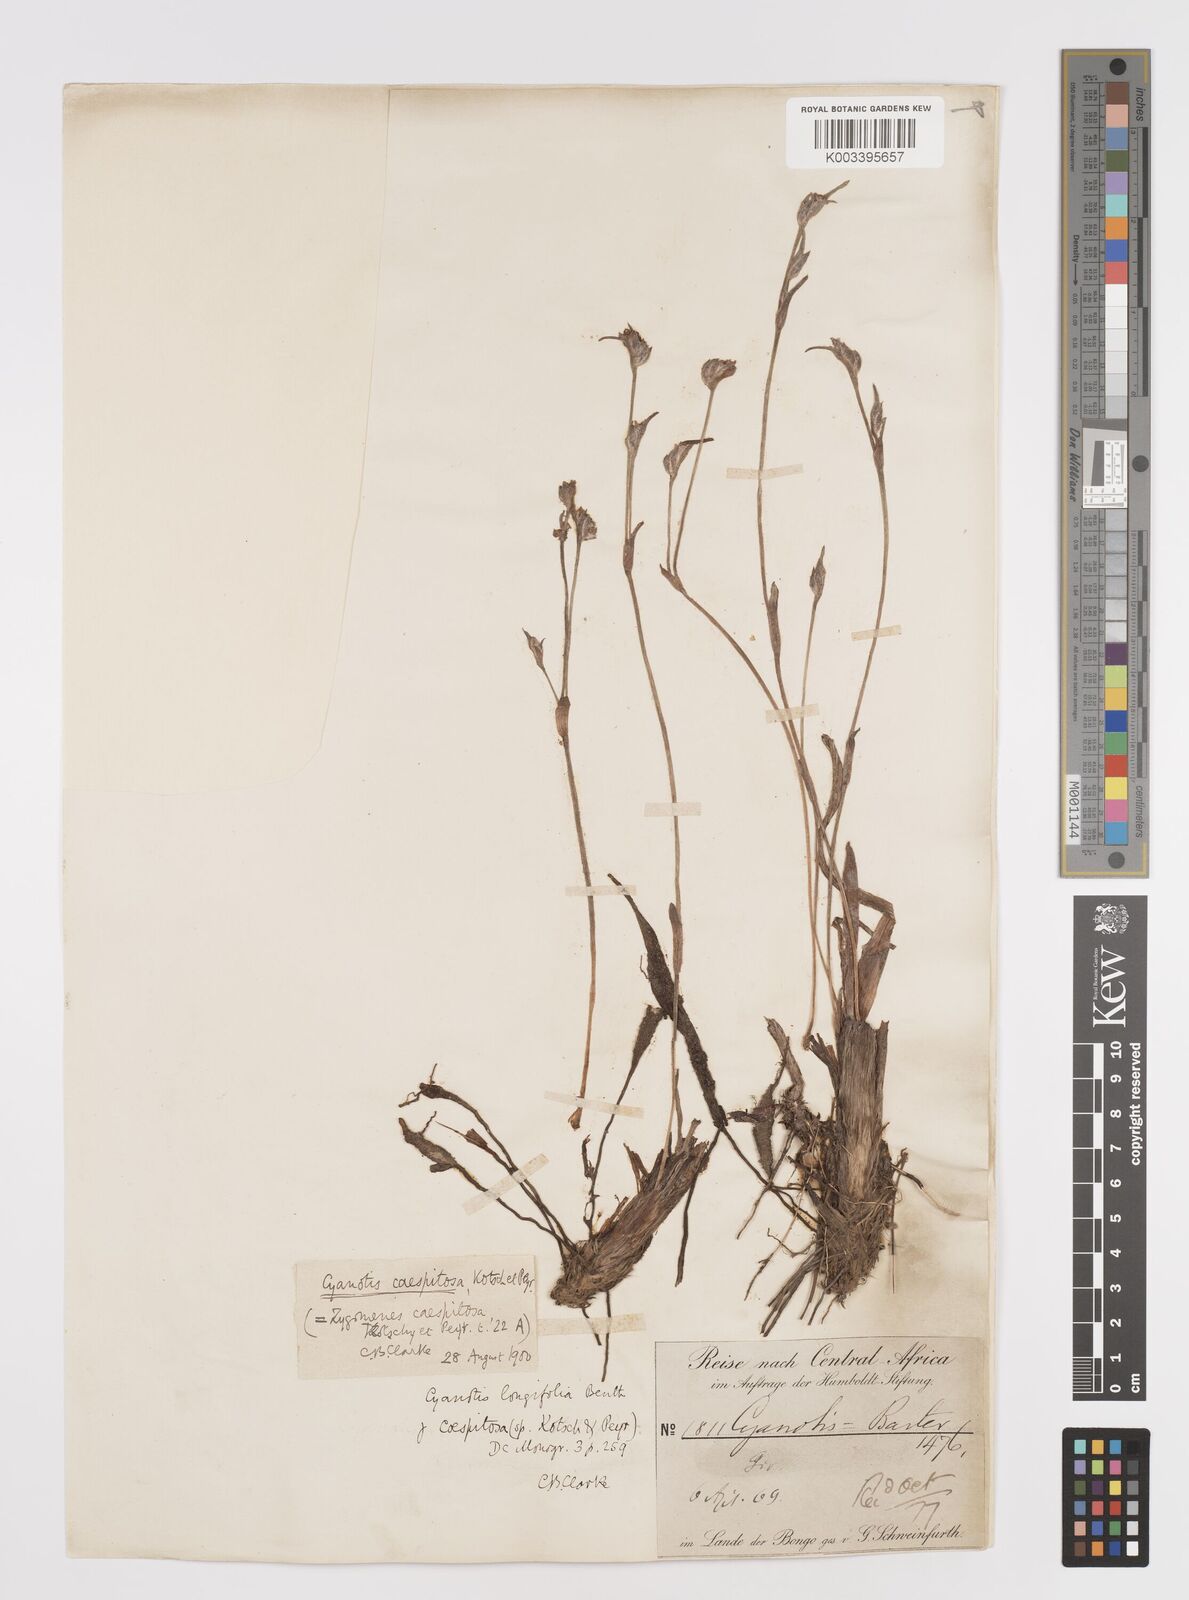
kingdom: Plantae
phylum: Tracheophyta
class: Liliopsida
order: Commelinales
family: Commelinaceae
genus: Cyanotis
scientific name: Cyanotis caespitosa
